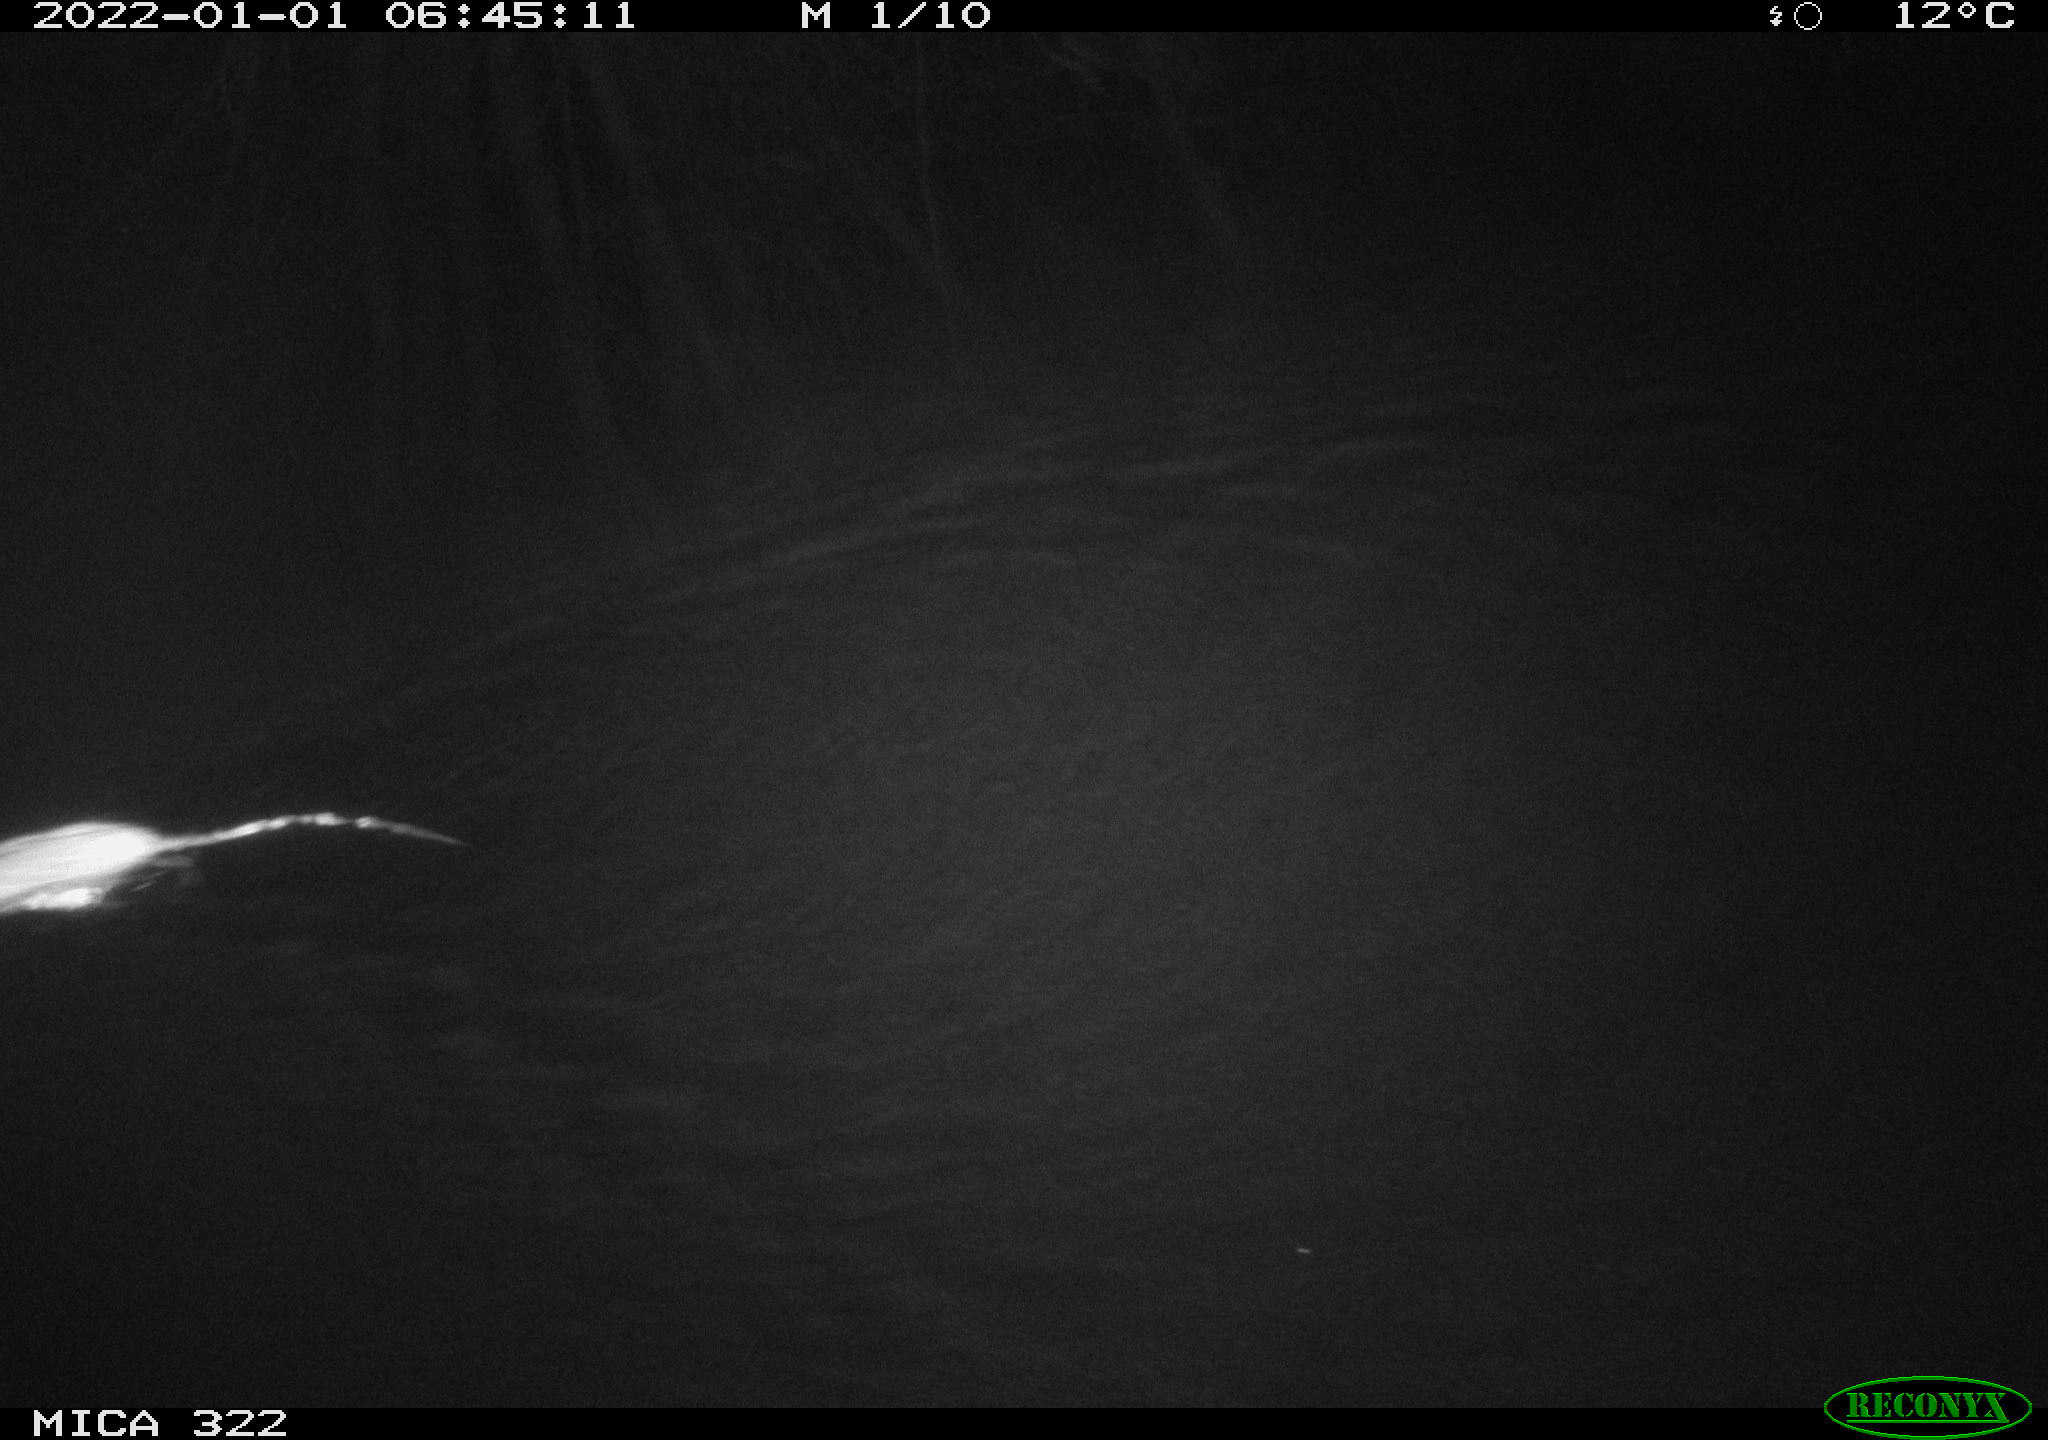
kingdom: Animalia
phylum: Chordata
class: Mammalia
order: Rodentia
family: Muridae
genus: Rattus
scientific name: Rattus norvegicus
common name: Brown rat
